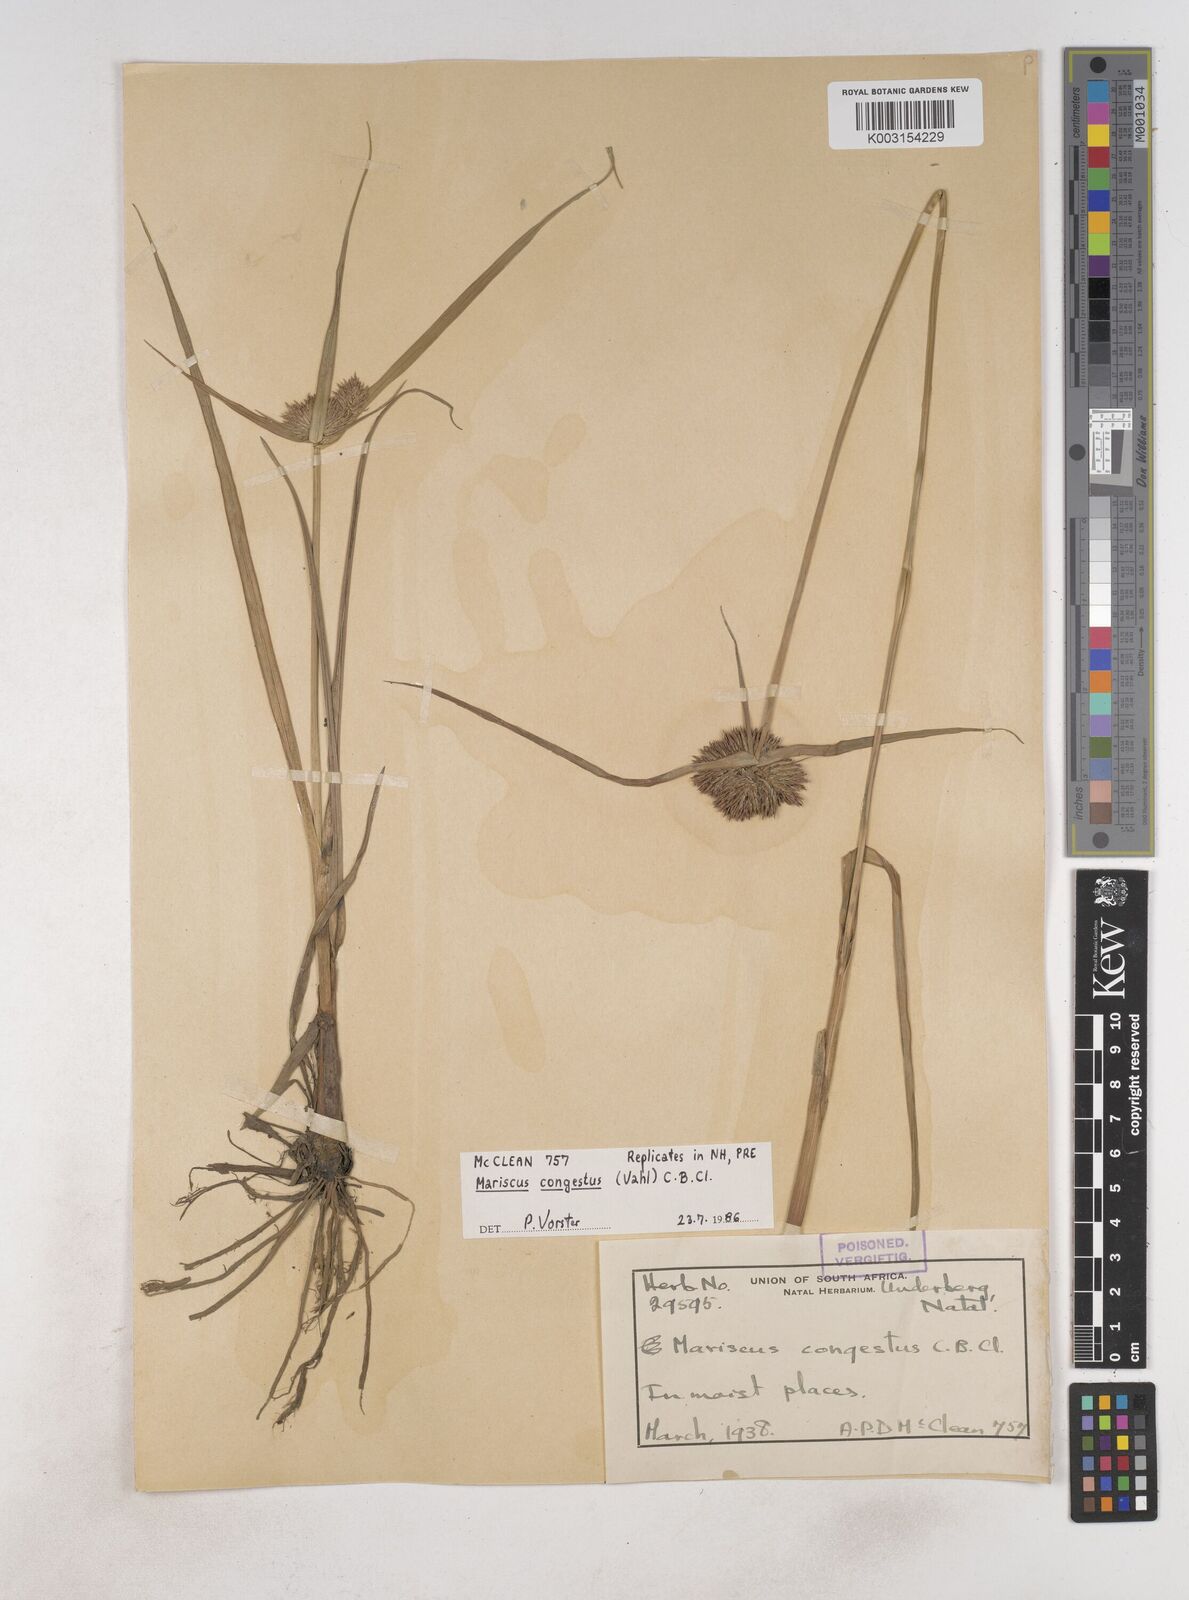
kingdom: Plantae
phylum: Tracheophyta
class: Liliopsida
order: Poales
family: Cyperaceae
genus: Cyperus
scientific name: Cyperus congestus
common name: Dense flat sedge
